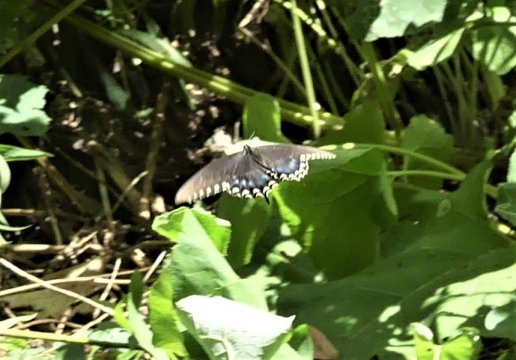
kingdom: Animalia
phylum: Arthropoda
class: Insecta
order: Lepidoptera
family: Papilionidae
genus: Pterourus
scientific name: Pterourus troilus
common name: Spicebush Swallowtail
